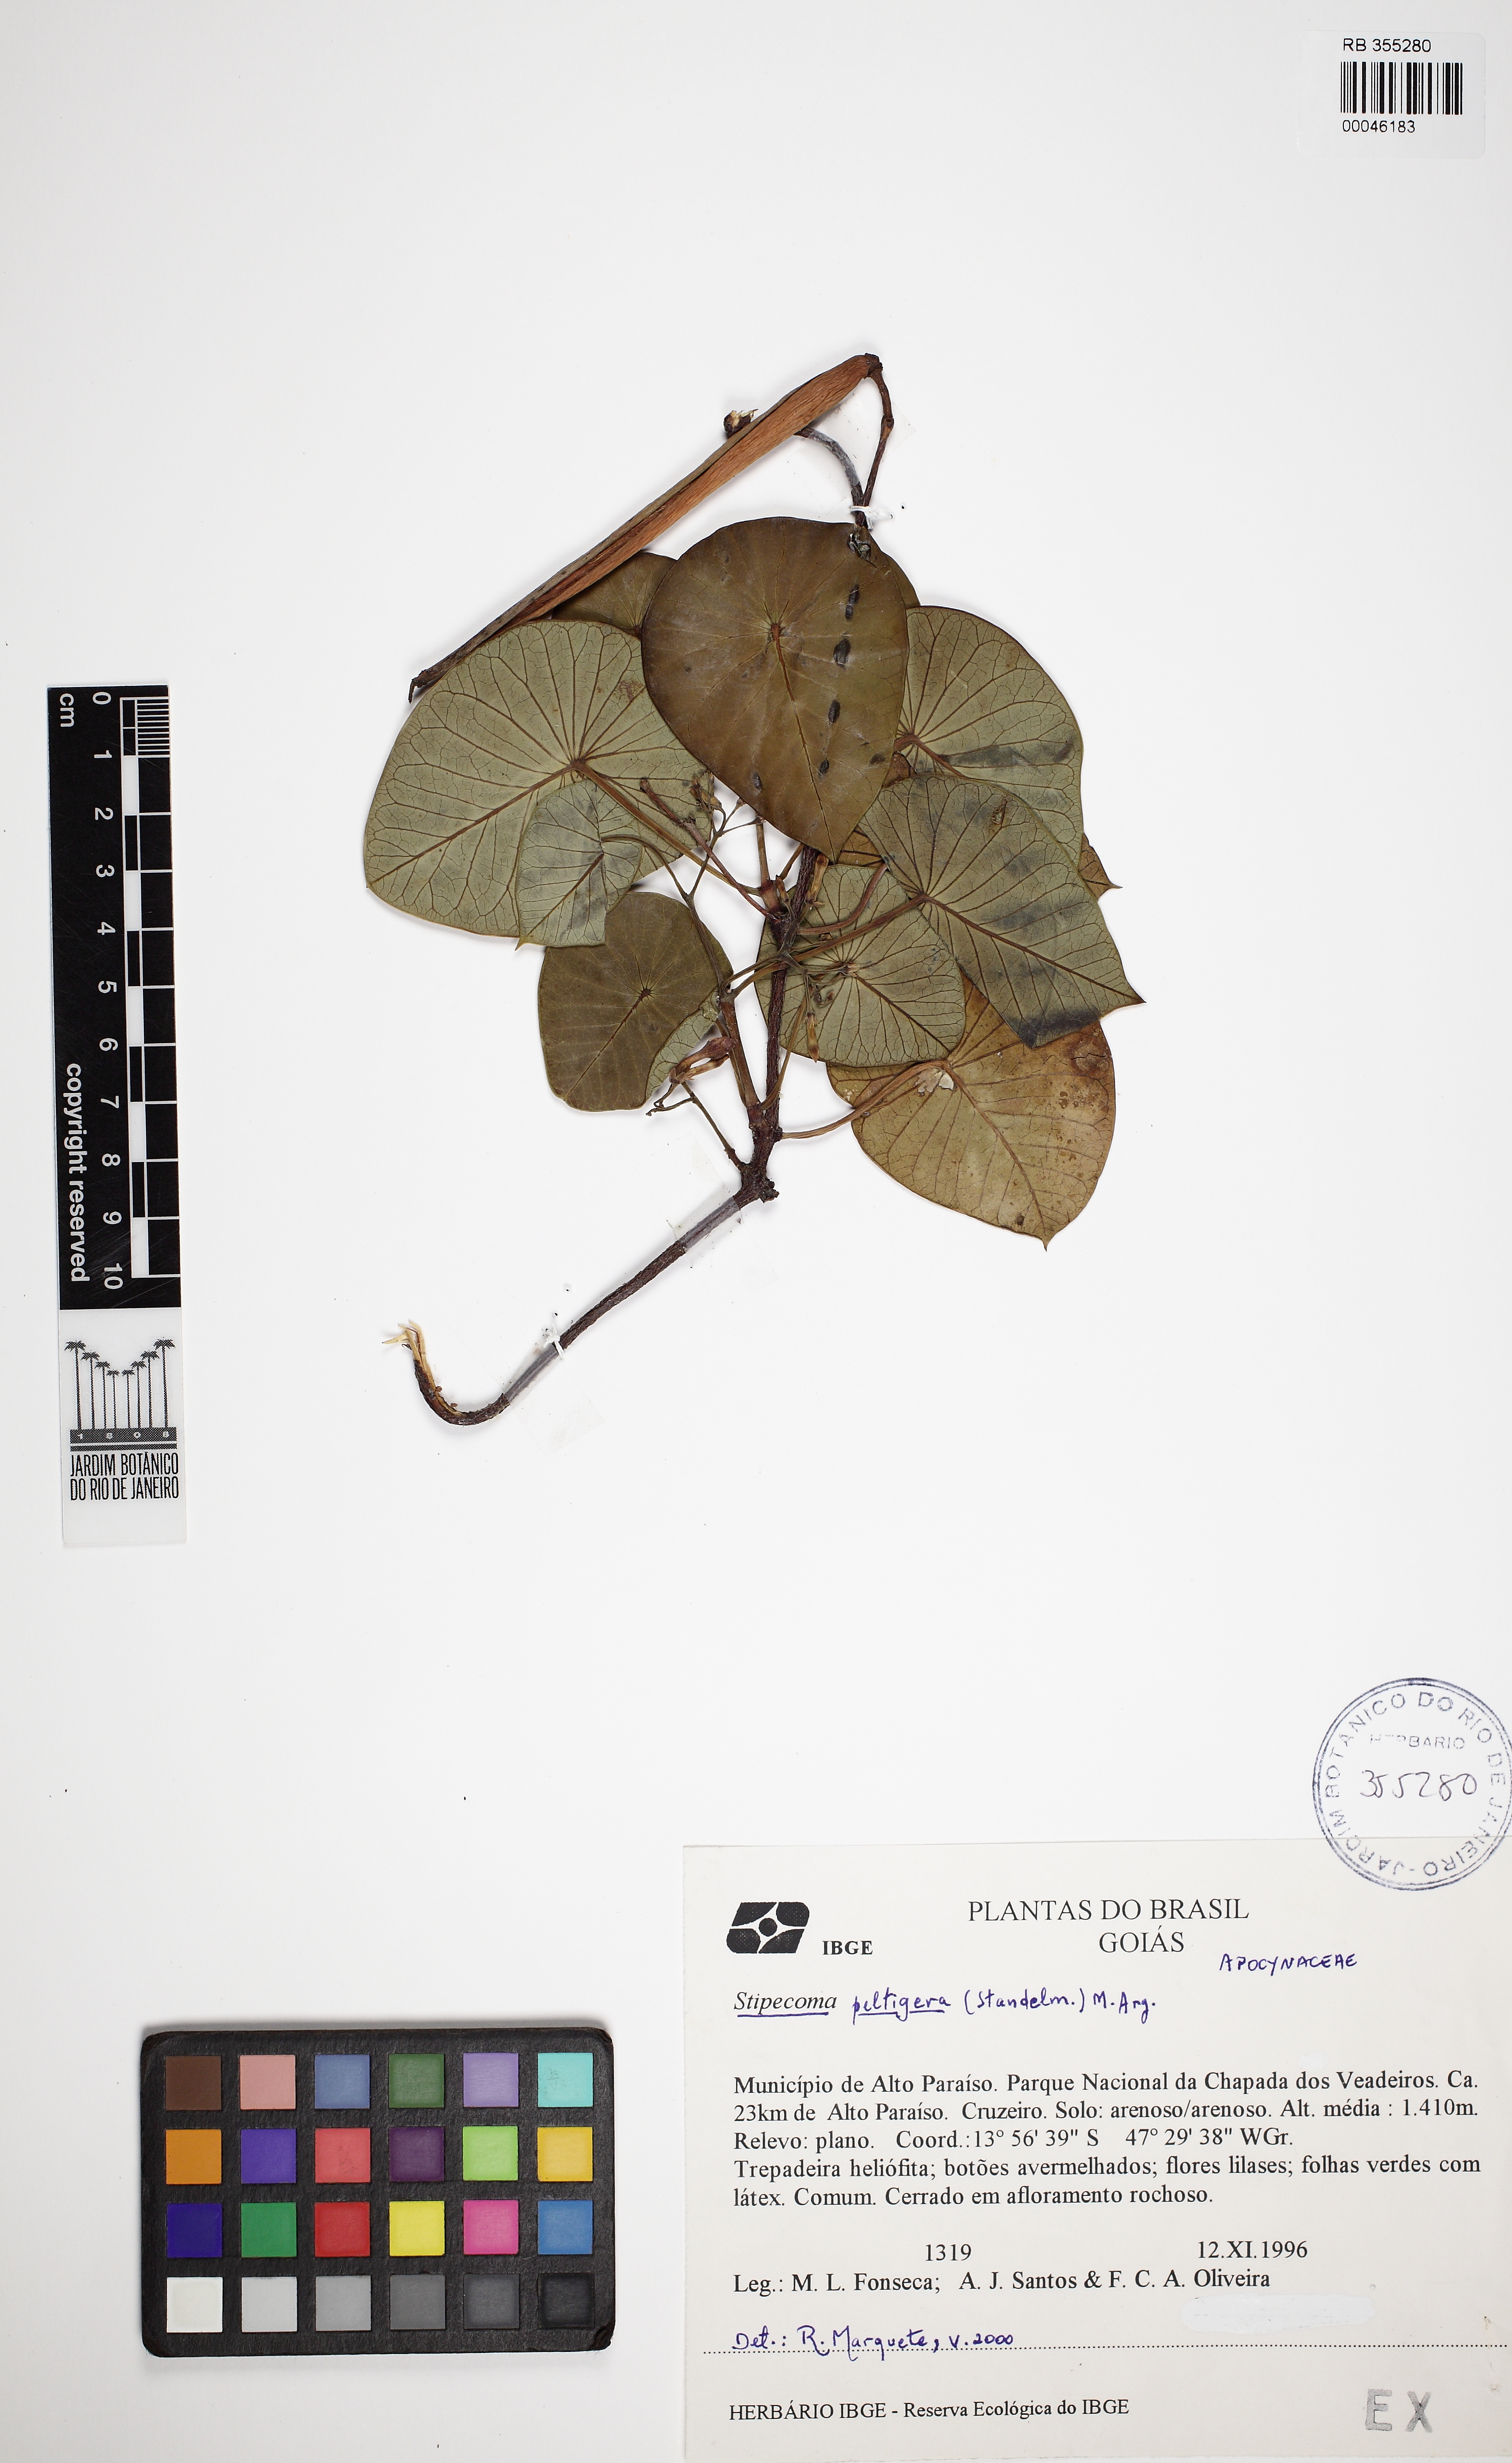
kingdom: Plantae
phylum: Tracheophyta
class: Magnoliopsida
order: Gentianales
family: Apocynaceae
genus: Stipecoma
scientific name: Stipecoma peltigera
